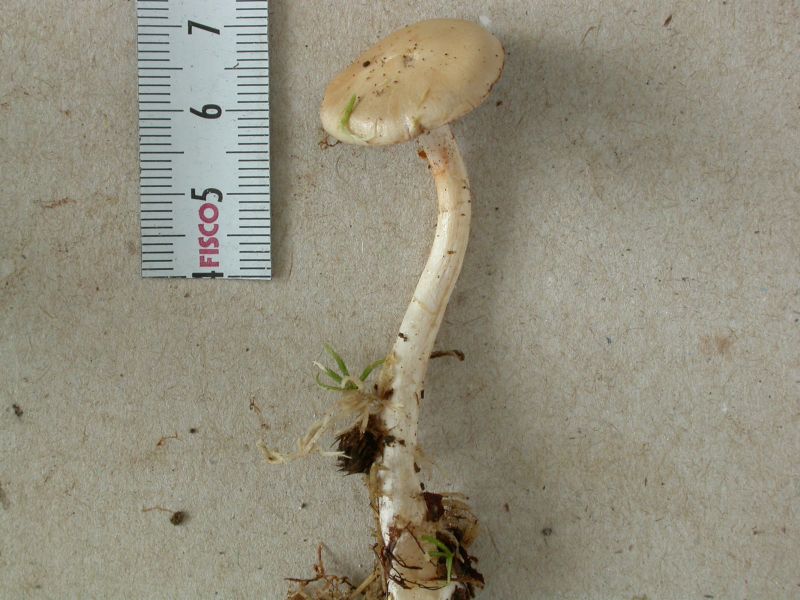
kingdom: Fungi
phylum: Basidiomycota
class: Agaricomycetes
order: Agaricales
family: Cortinariaceae
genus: Cortinarius
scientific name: Cortinarius delibutus
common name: gul slørhat
